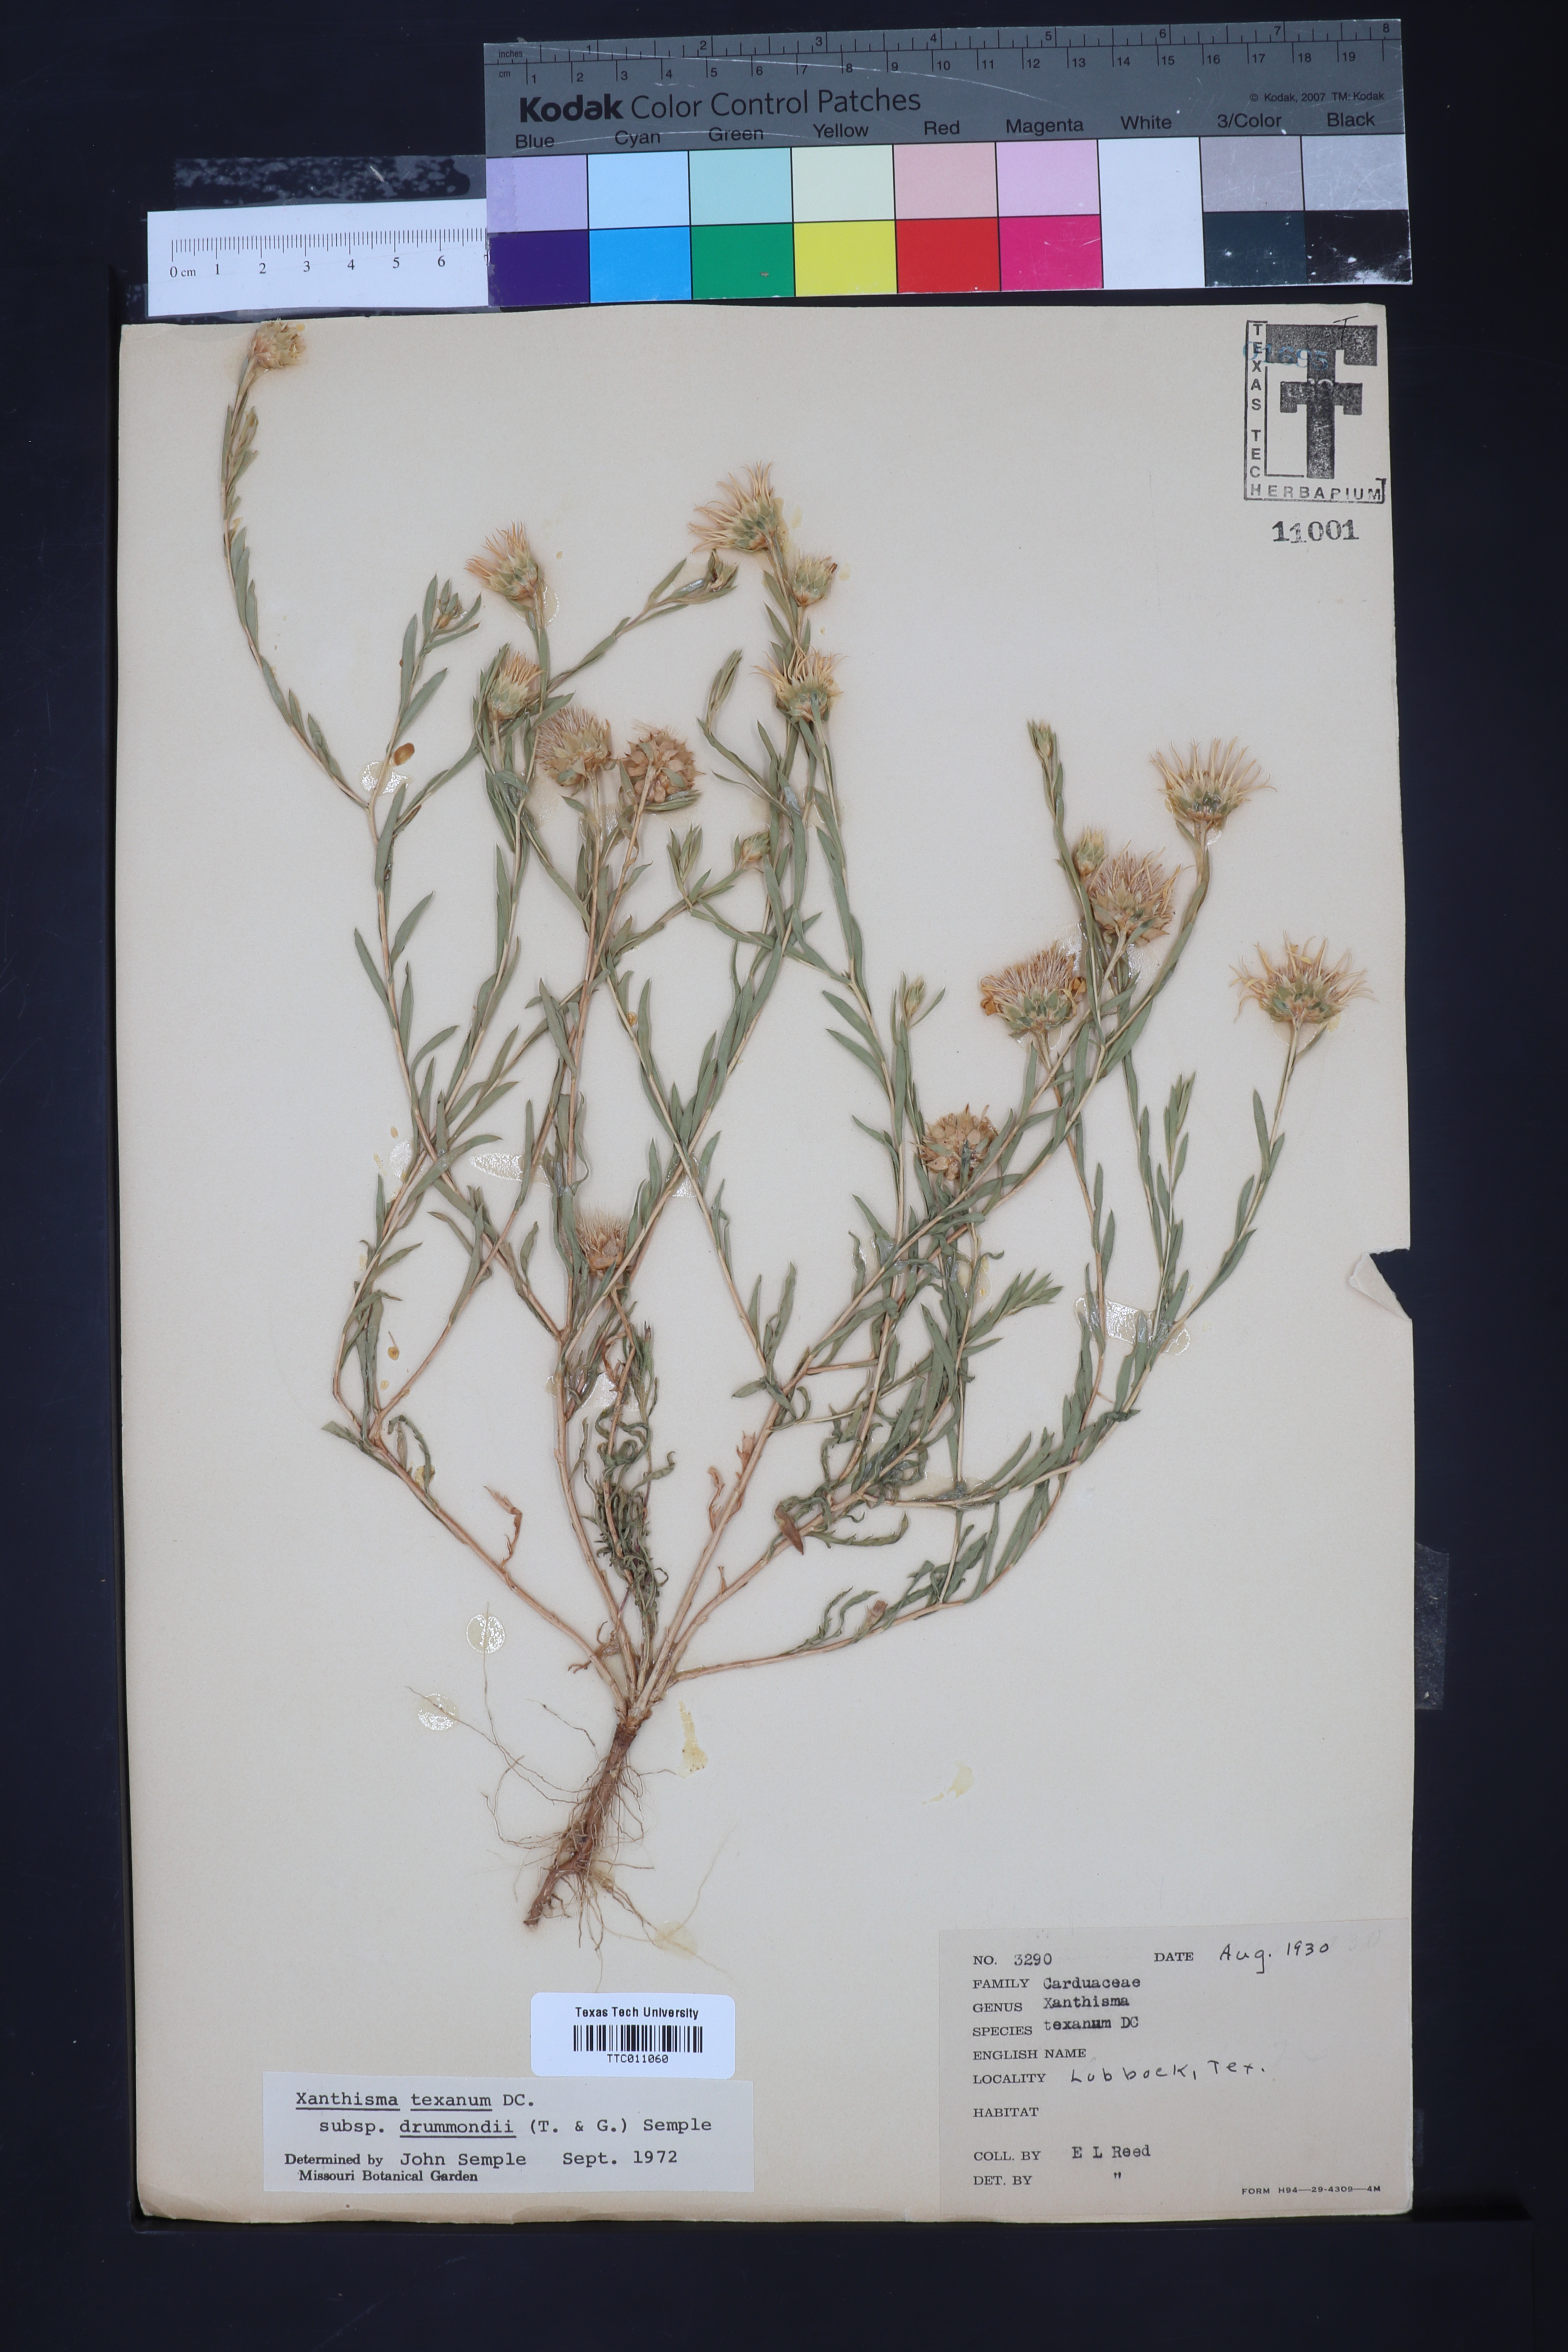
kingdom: Plantae
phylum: Tracheophyta
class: Magnoliopsida
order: Asterales
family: Asteraceae
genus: Xanthisma
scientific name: Xanthisma texanum
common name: Texas sleepy daisy
